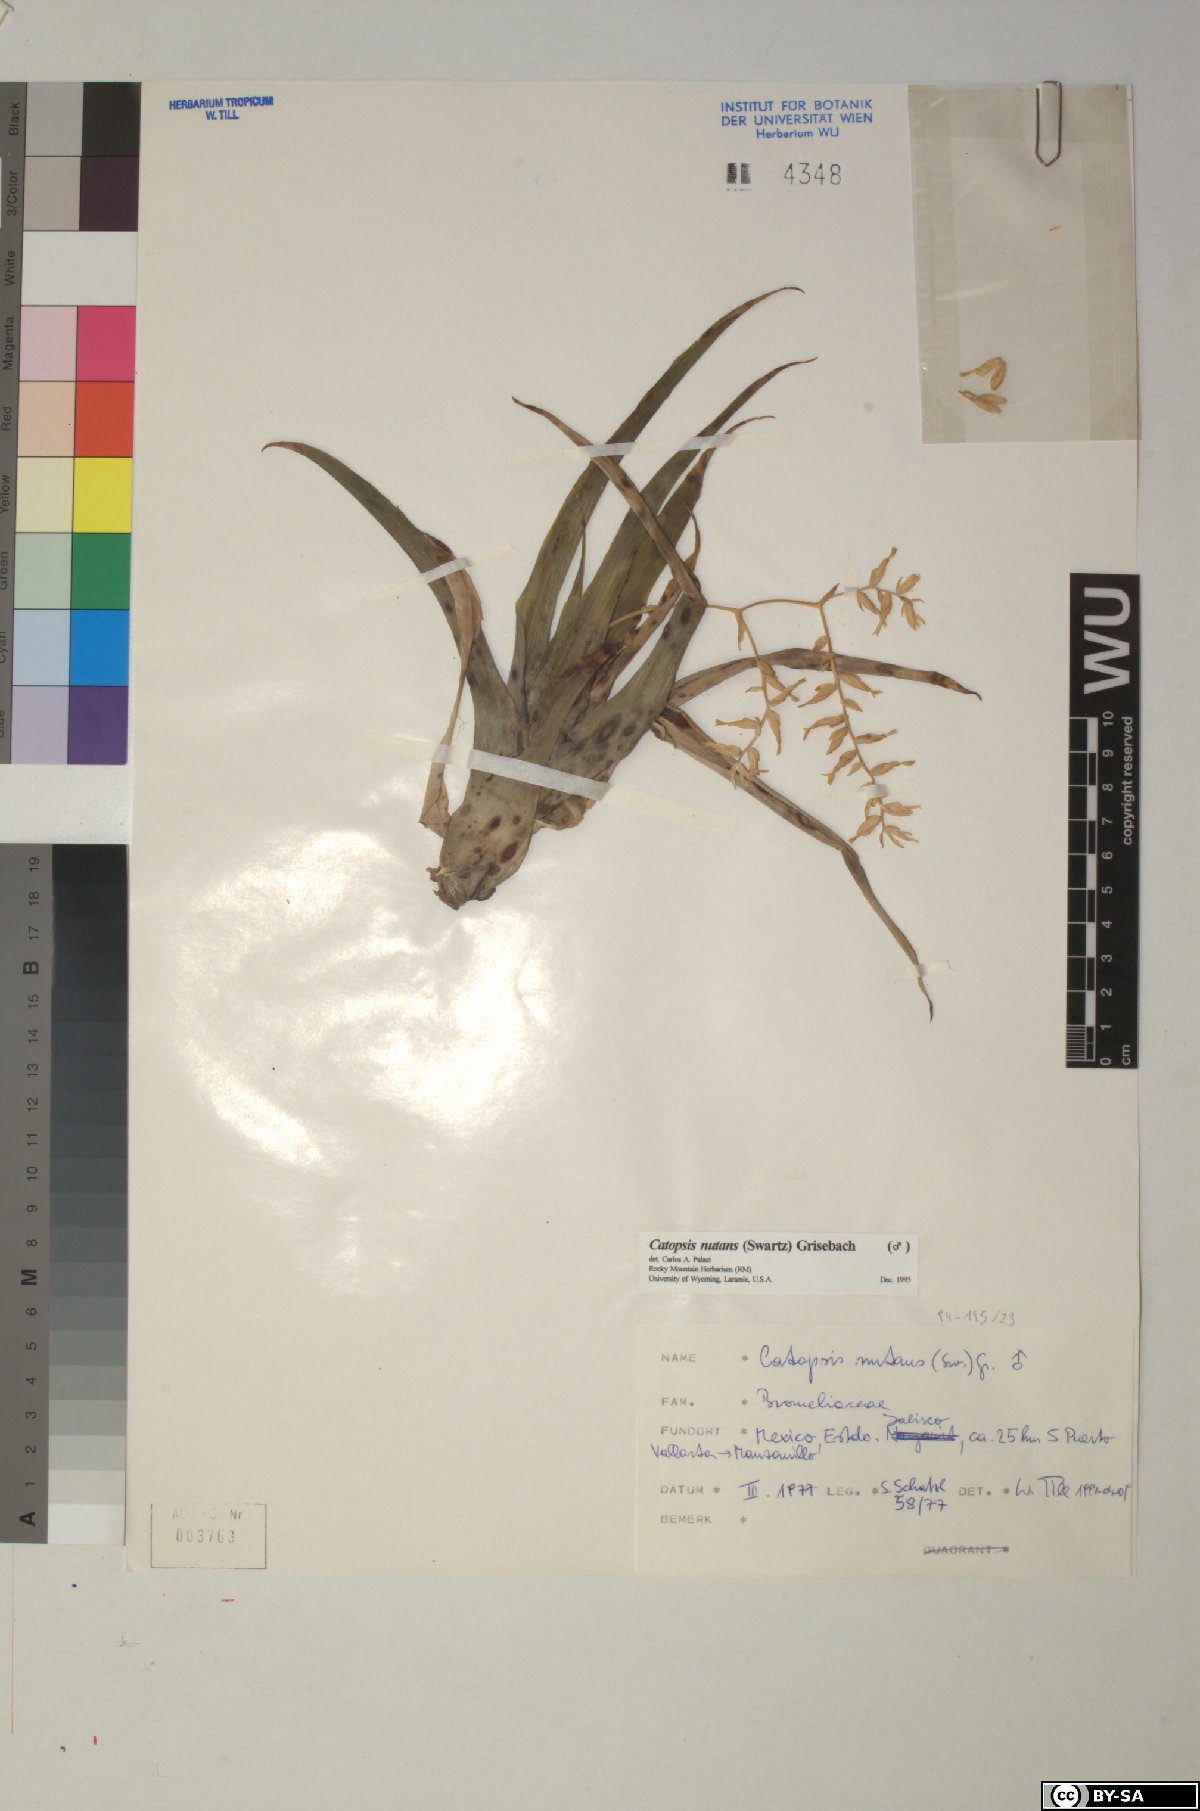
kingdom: Plantae
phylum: Tracheophyta
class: Liliopsida
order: Poales
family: Bromeliaceae
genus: Catopsis
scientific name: Catopsis nutans
